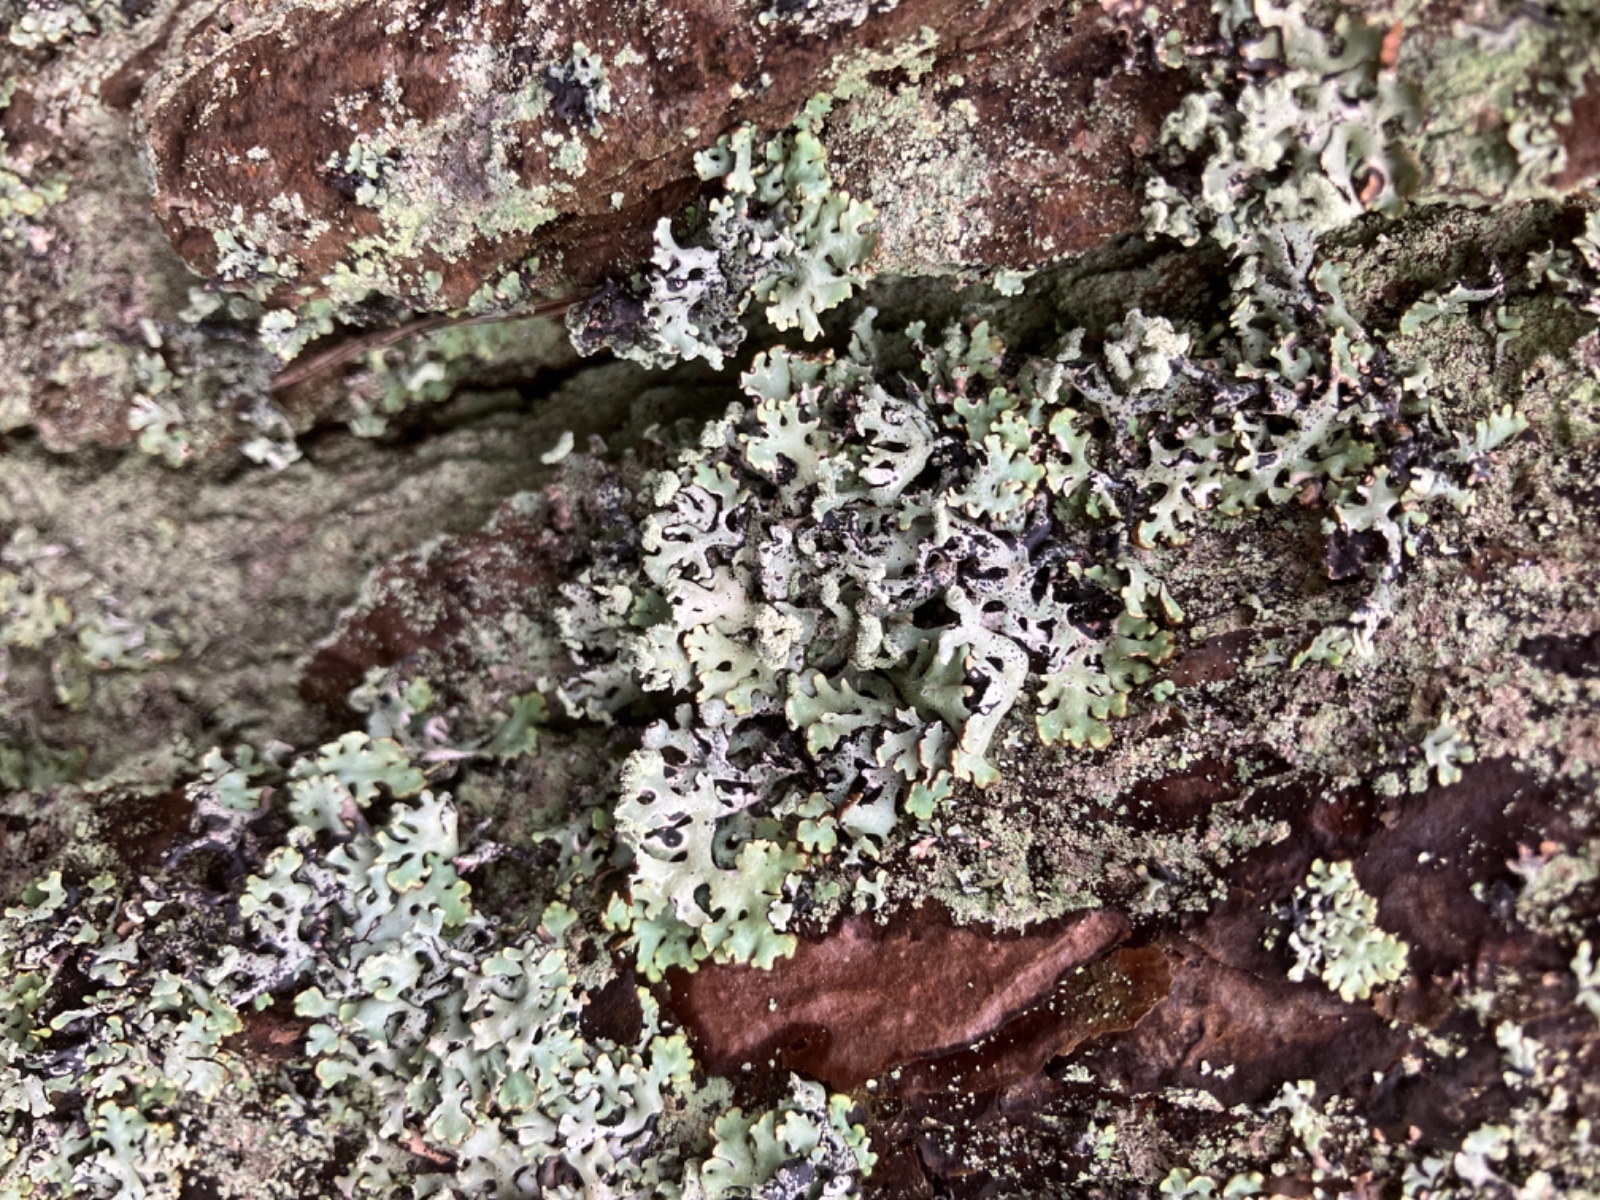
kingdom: Fungi
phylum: Ascomycota
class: Lecanoromycetes
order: Lecanorales
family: Parmeliaceae
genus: Hypogymnia
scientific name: Hypogymnia physodes
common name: almindelig kvistlav
